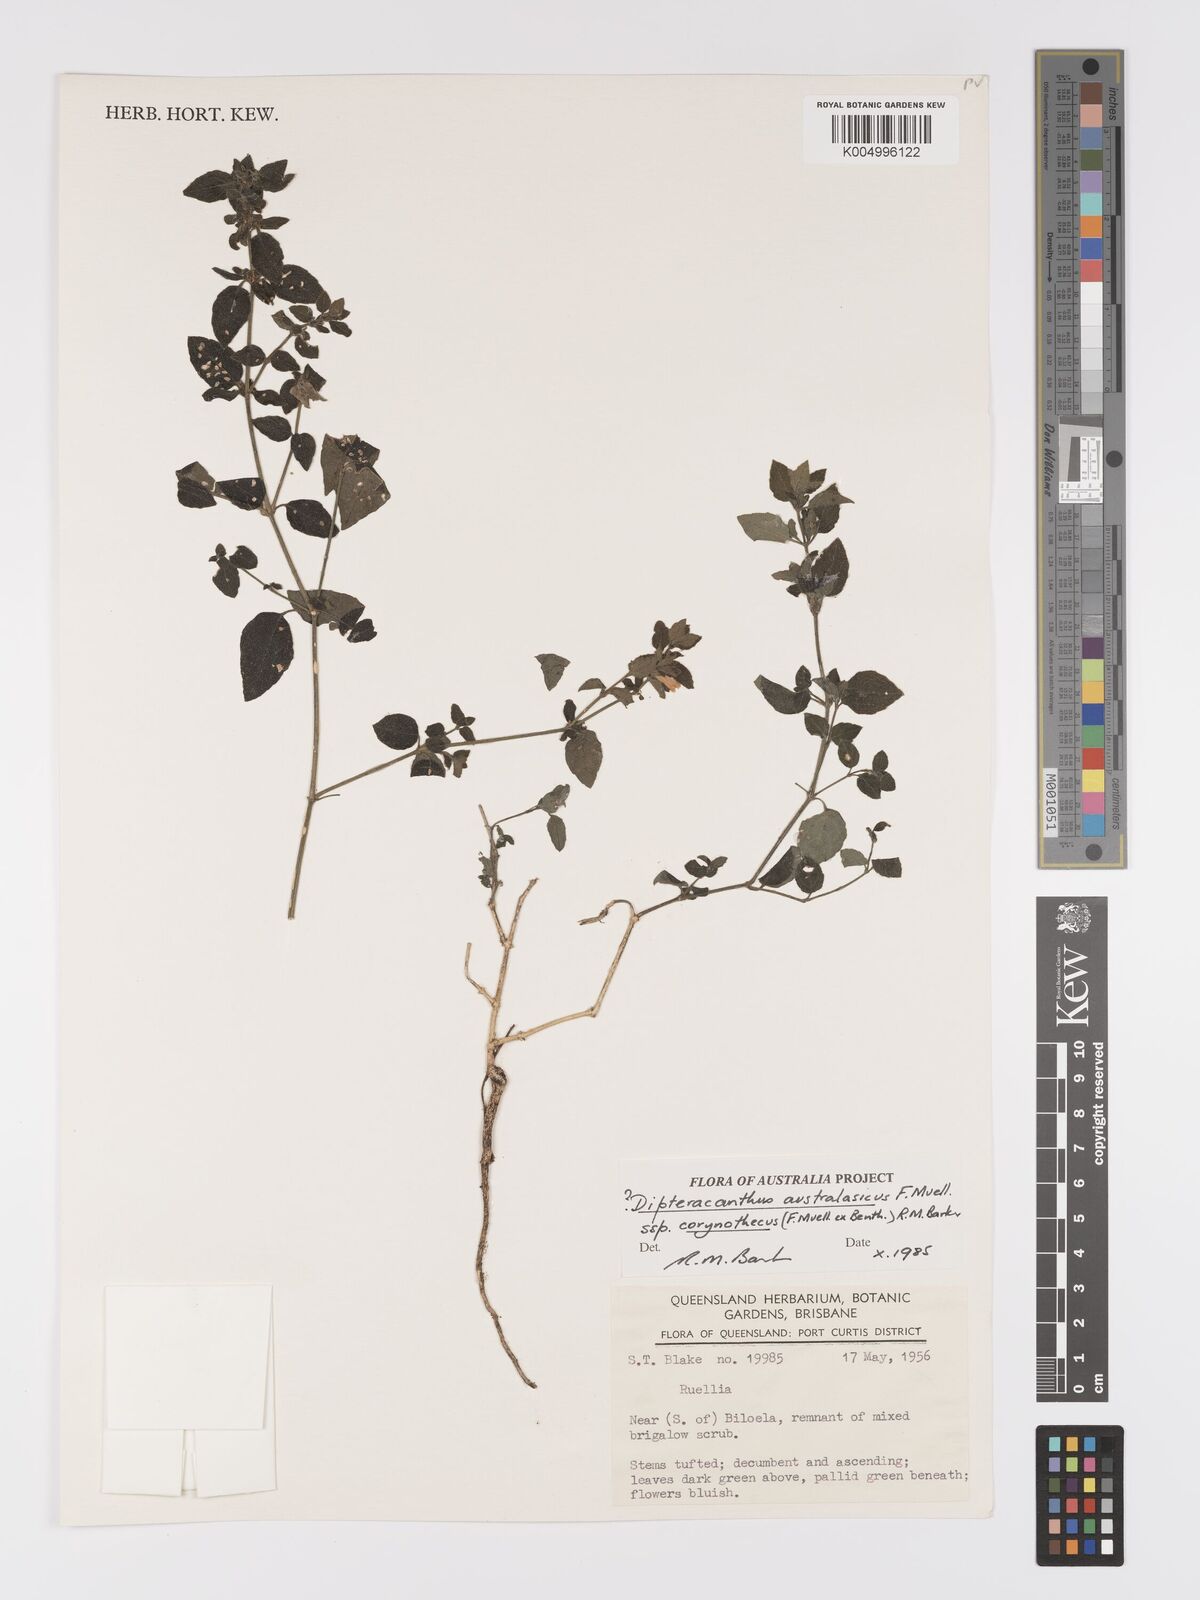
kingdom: Plantae
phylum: Tracheophyta
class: Magnoliopsida
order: Lamiales
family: Acanthaceae
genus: Ruellia
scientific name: Ruellia corynotheca
